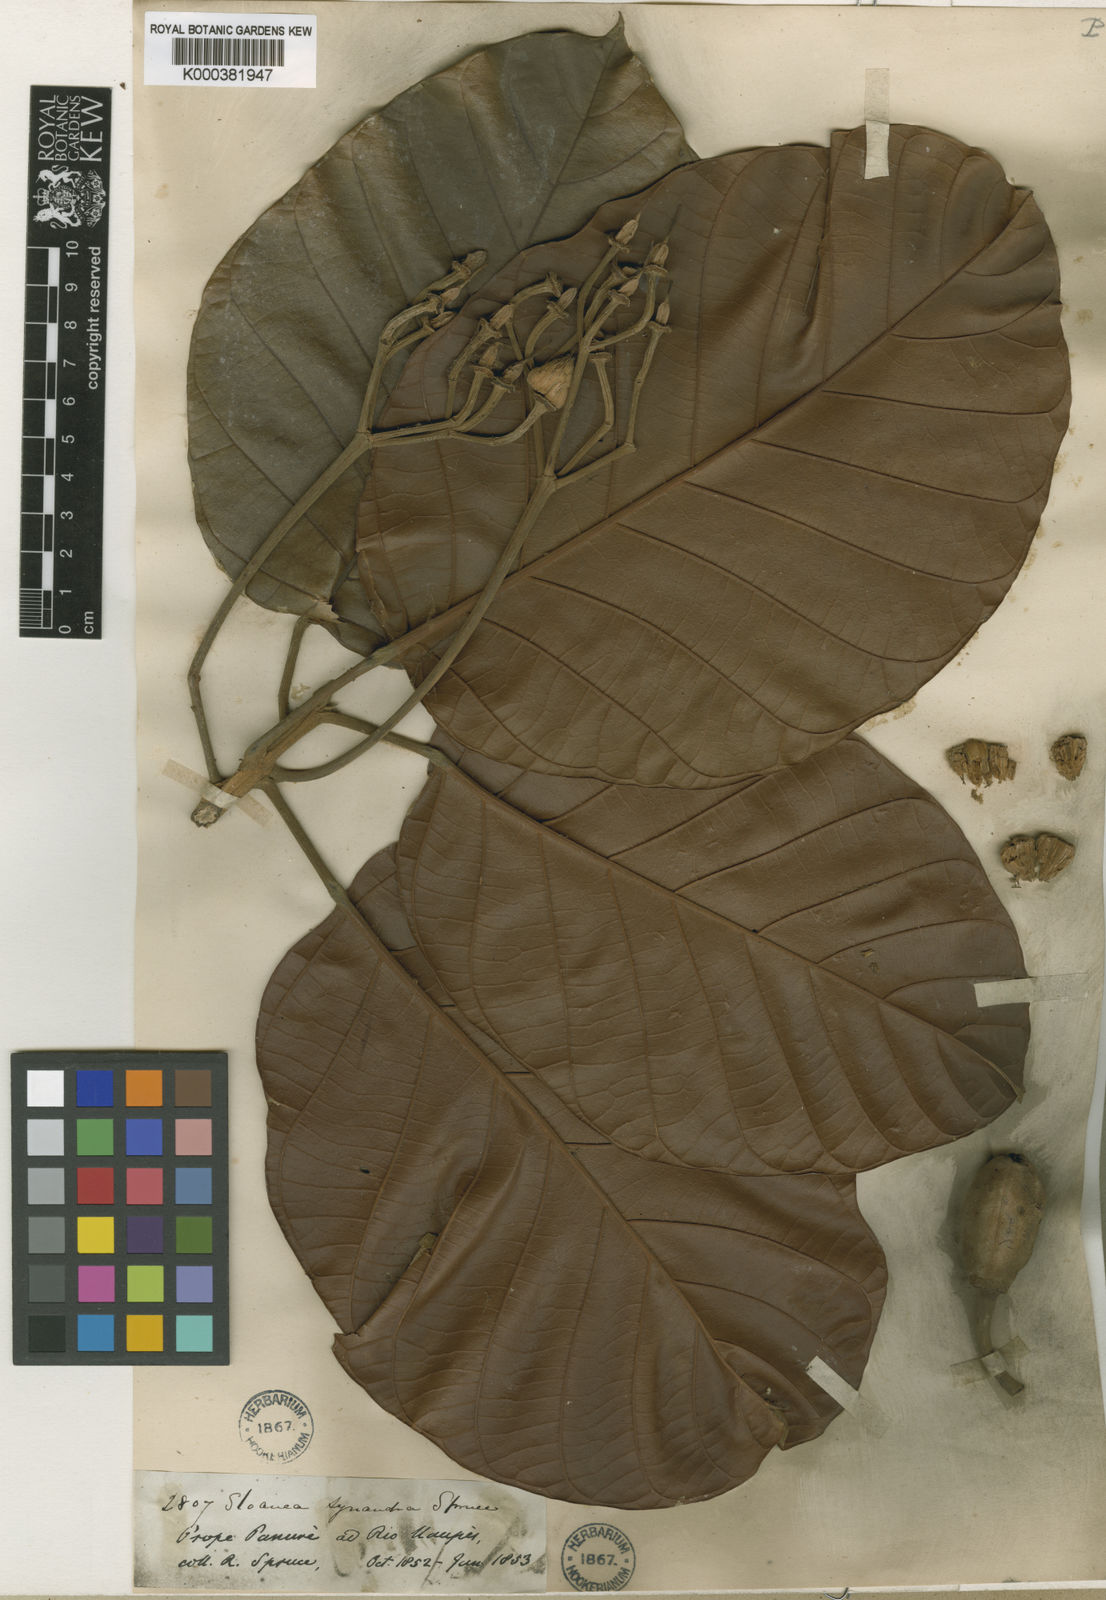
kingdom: Plantae
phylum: Tracheophyta
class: Magnoliopsida
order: Oxalidales
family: Elaeocarpaceae
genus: Sloanea
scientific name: Sloanea synandra
